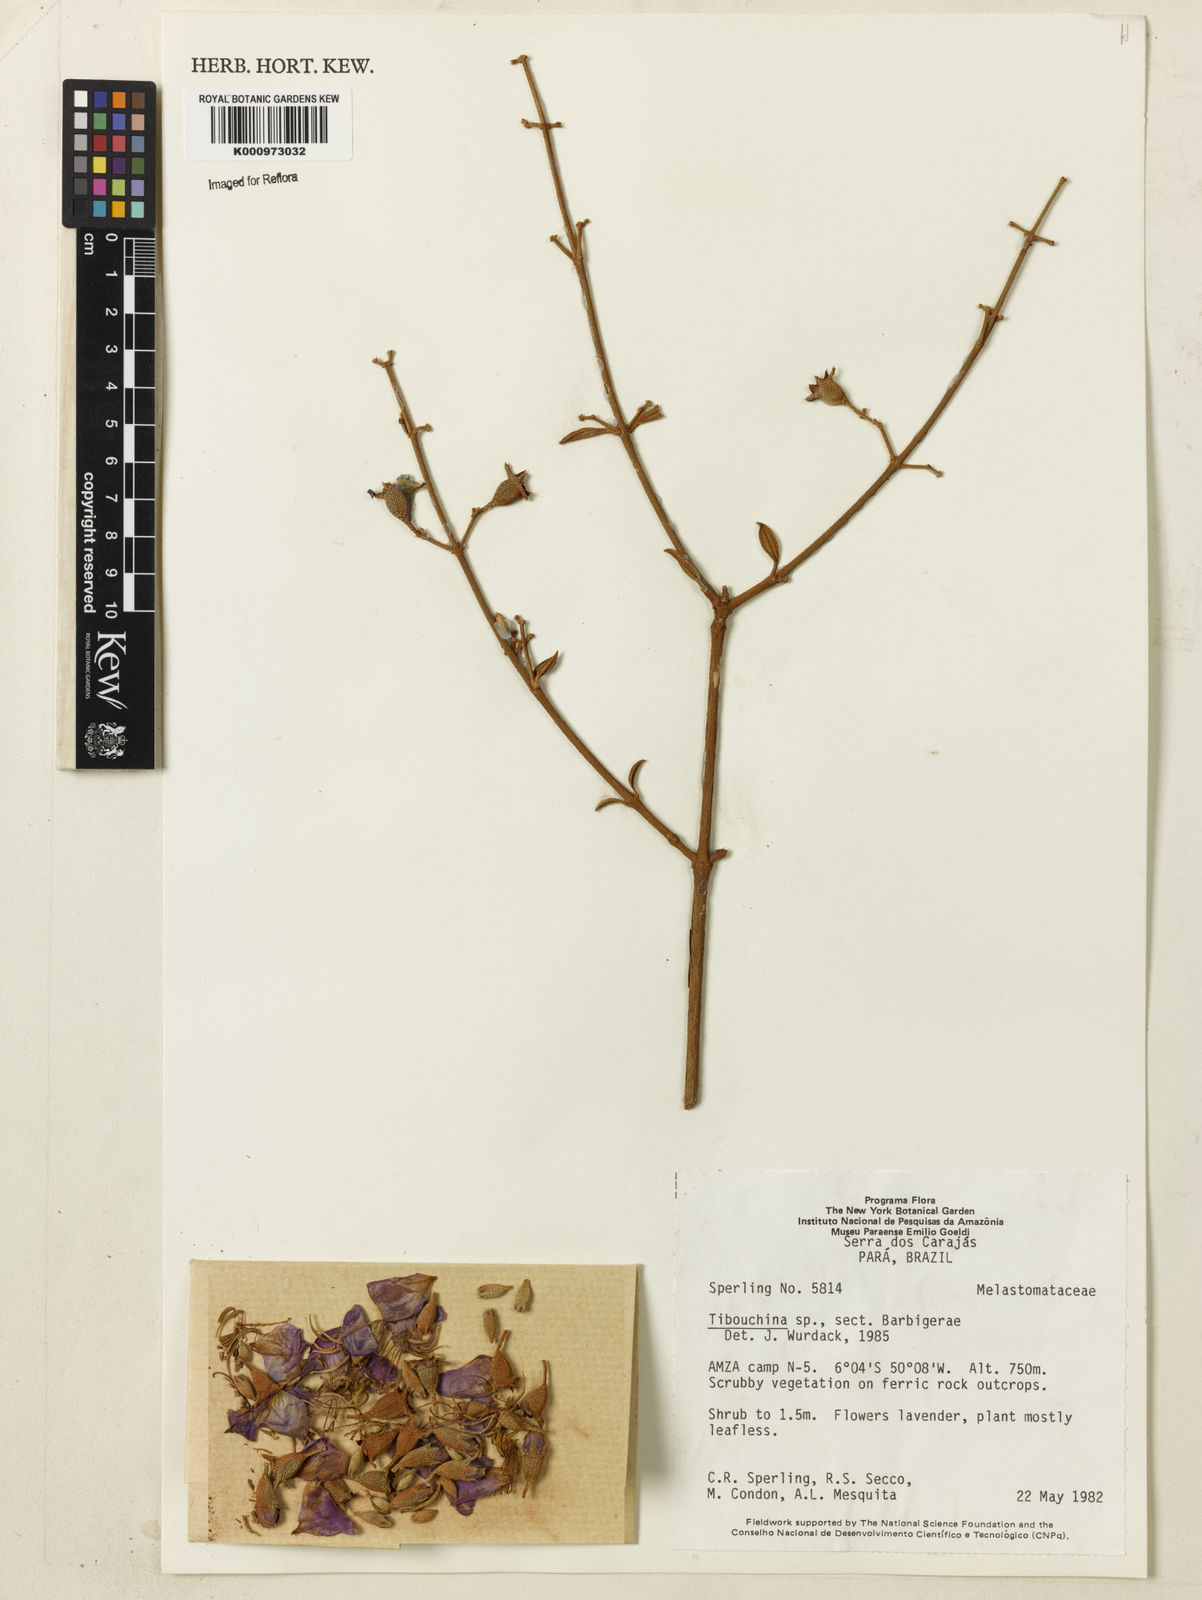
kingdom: Plantae
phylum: Tracheophyta
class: Magnoliopsida
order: Myrtales
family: Melastomataceae
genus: Tibouchina
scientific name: Tibouchina
